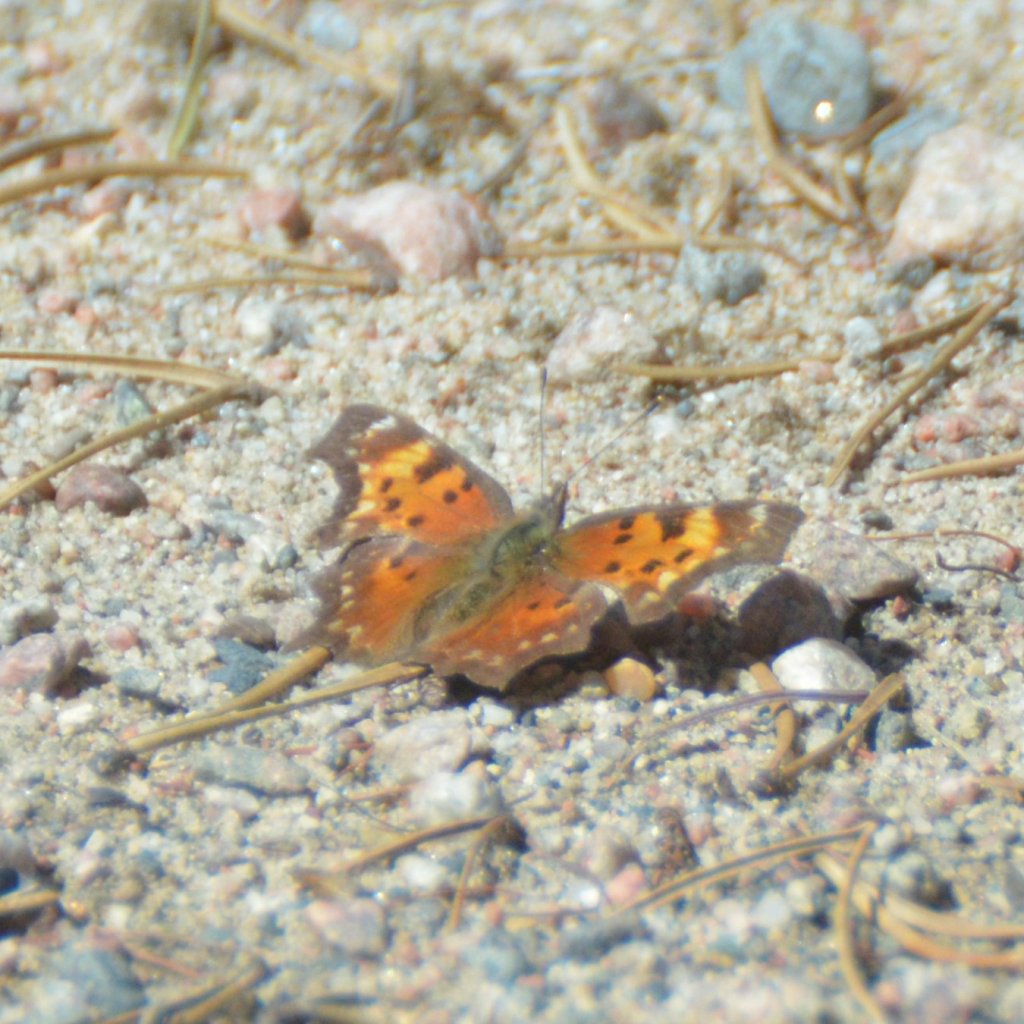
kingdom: Animalia
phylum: Arthropoda
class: Insecta
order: Lepidoptera
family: Nymphalidae
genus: Polygonia
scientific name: Polygonia progne
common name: Gray Comma
